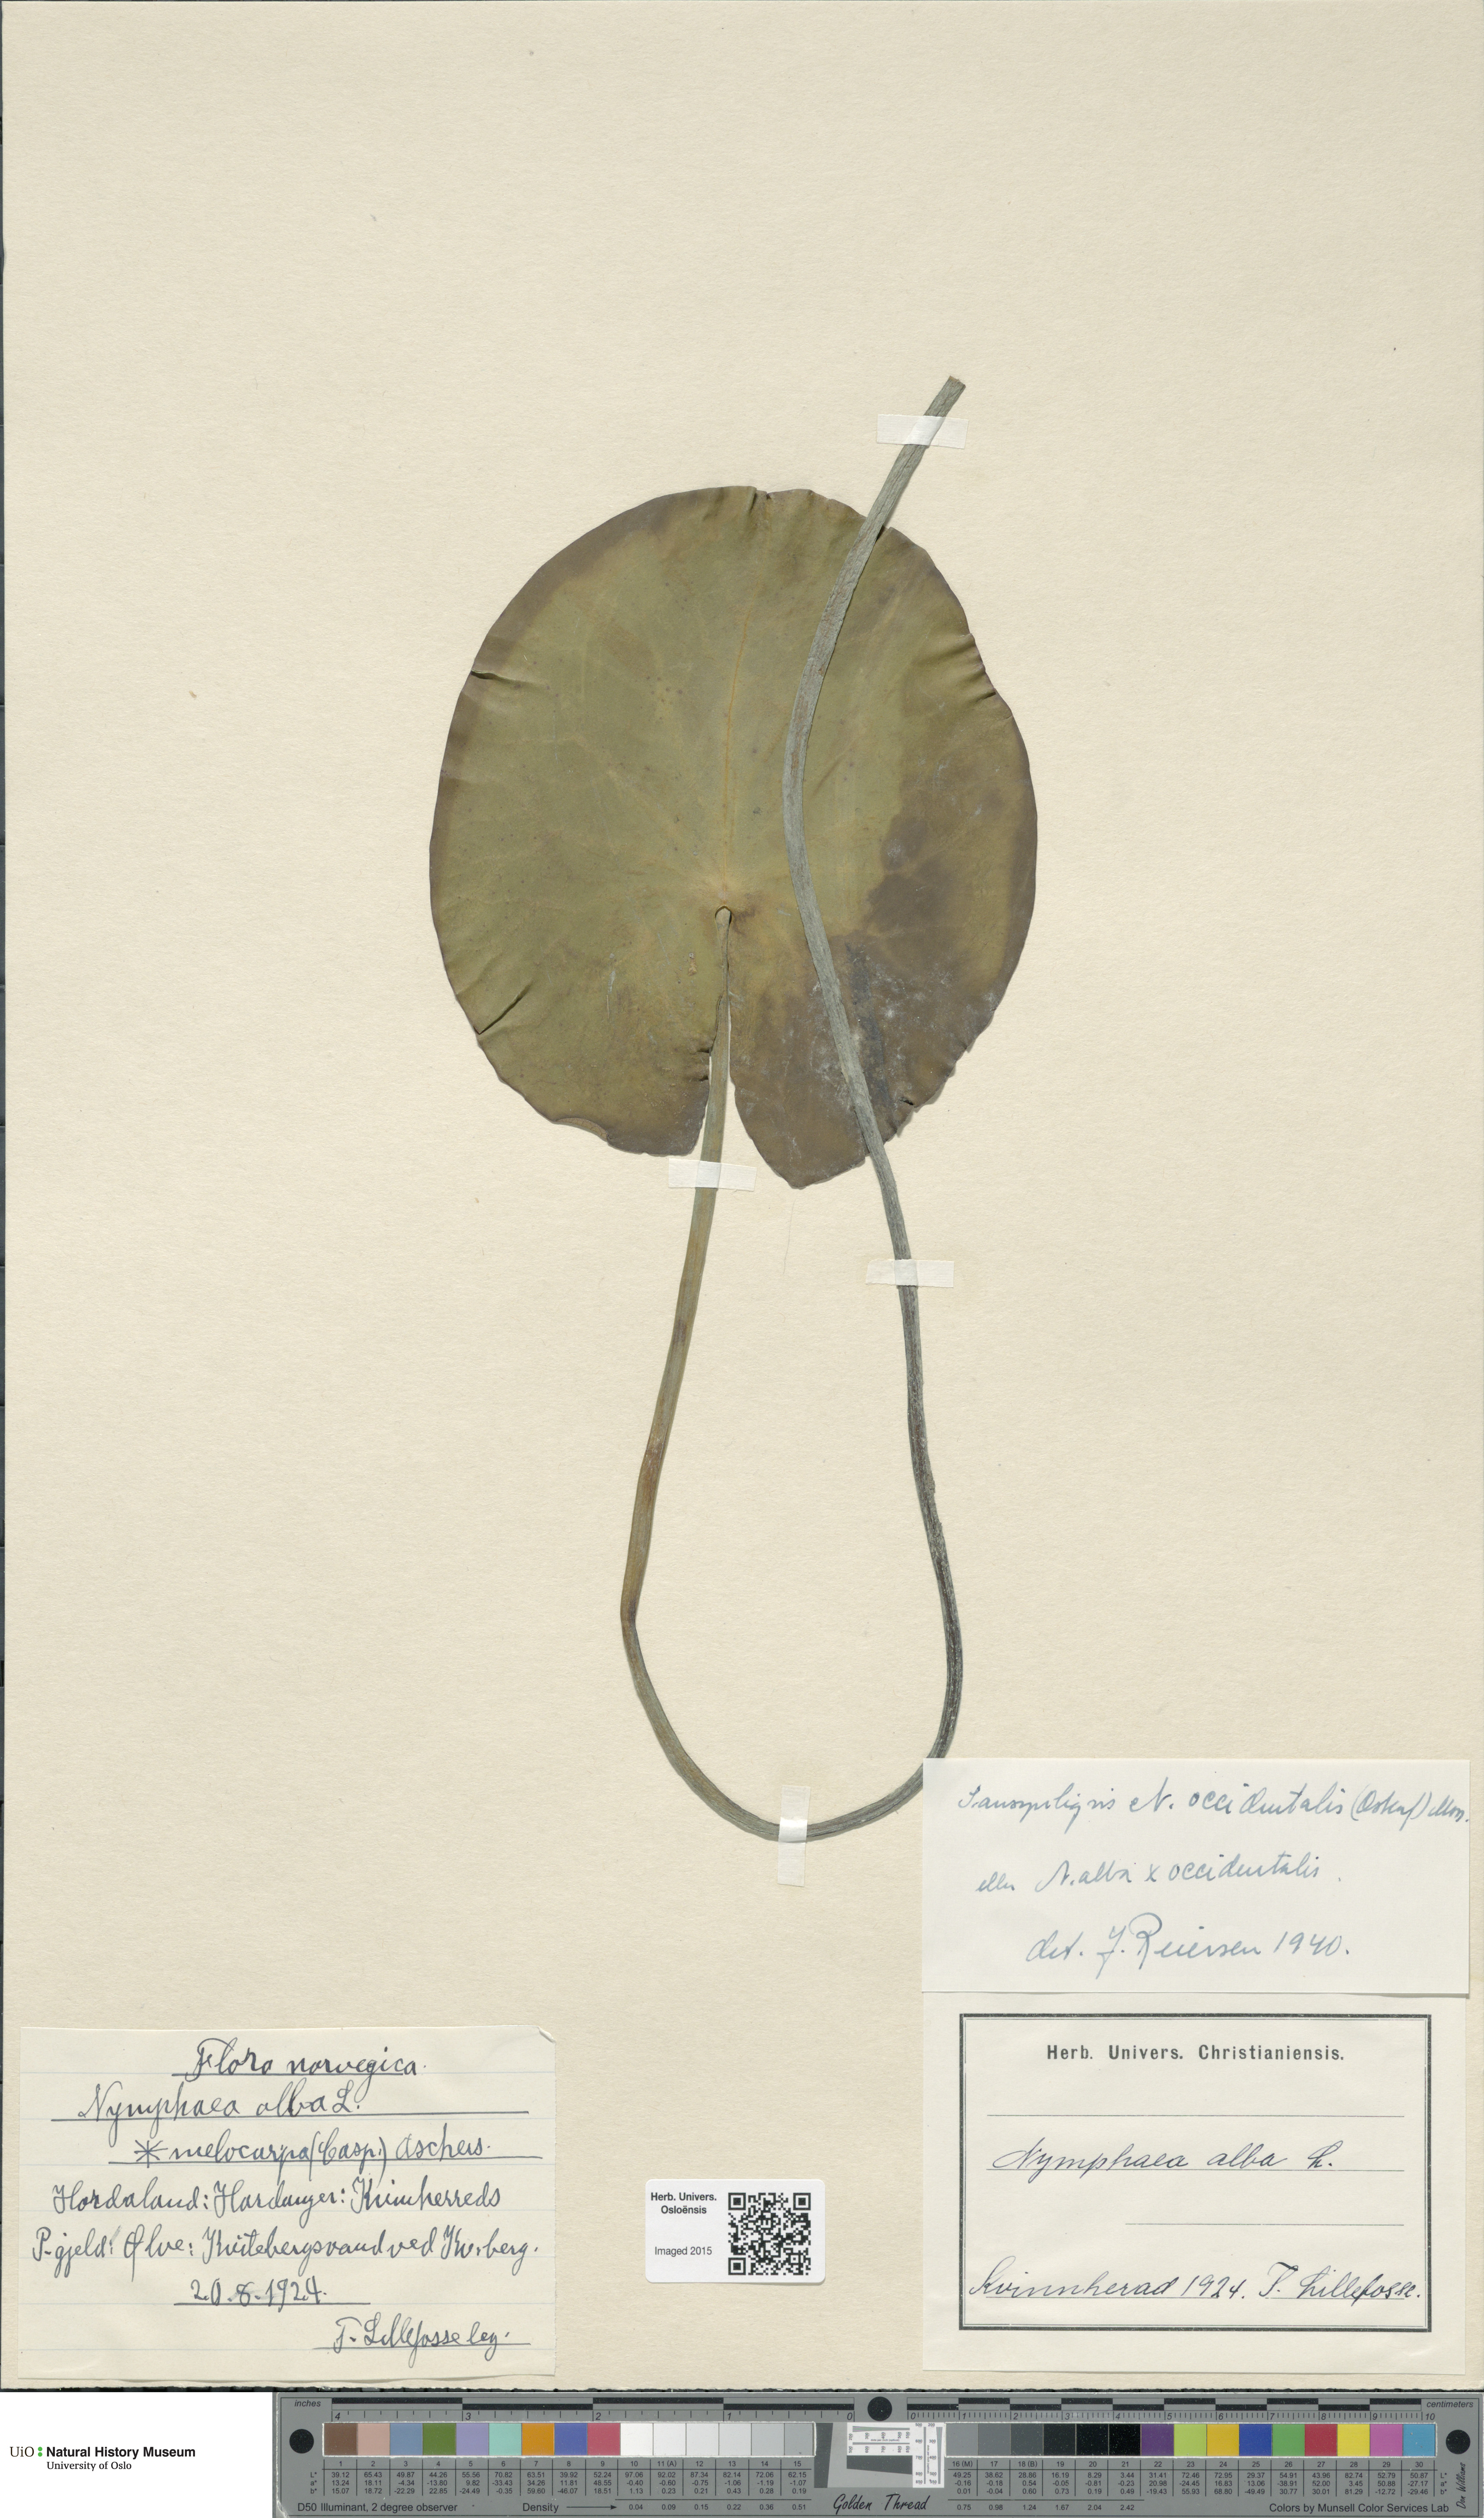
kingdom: Plantae
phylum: Tracheophyta
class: Magnoliopsida
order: Nymphaeales
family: Nymphaeaceae
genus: Nymphaea
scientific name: Nymphaea alba
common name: White water-lily
